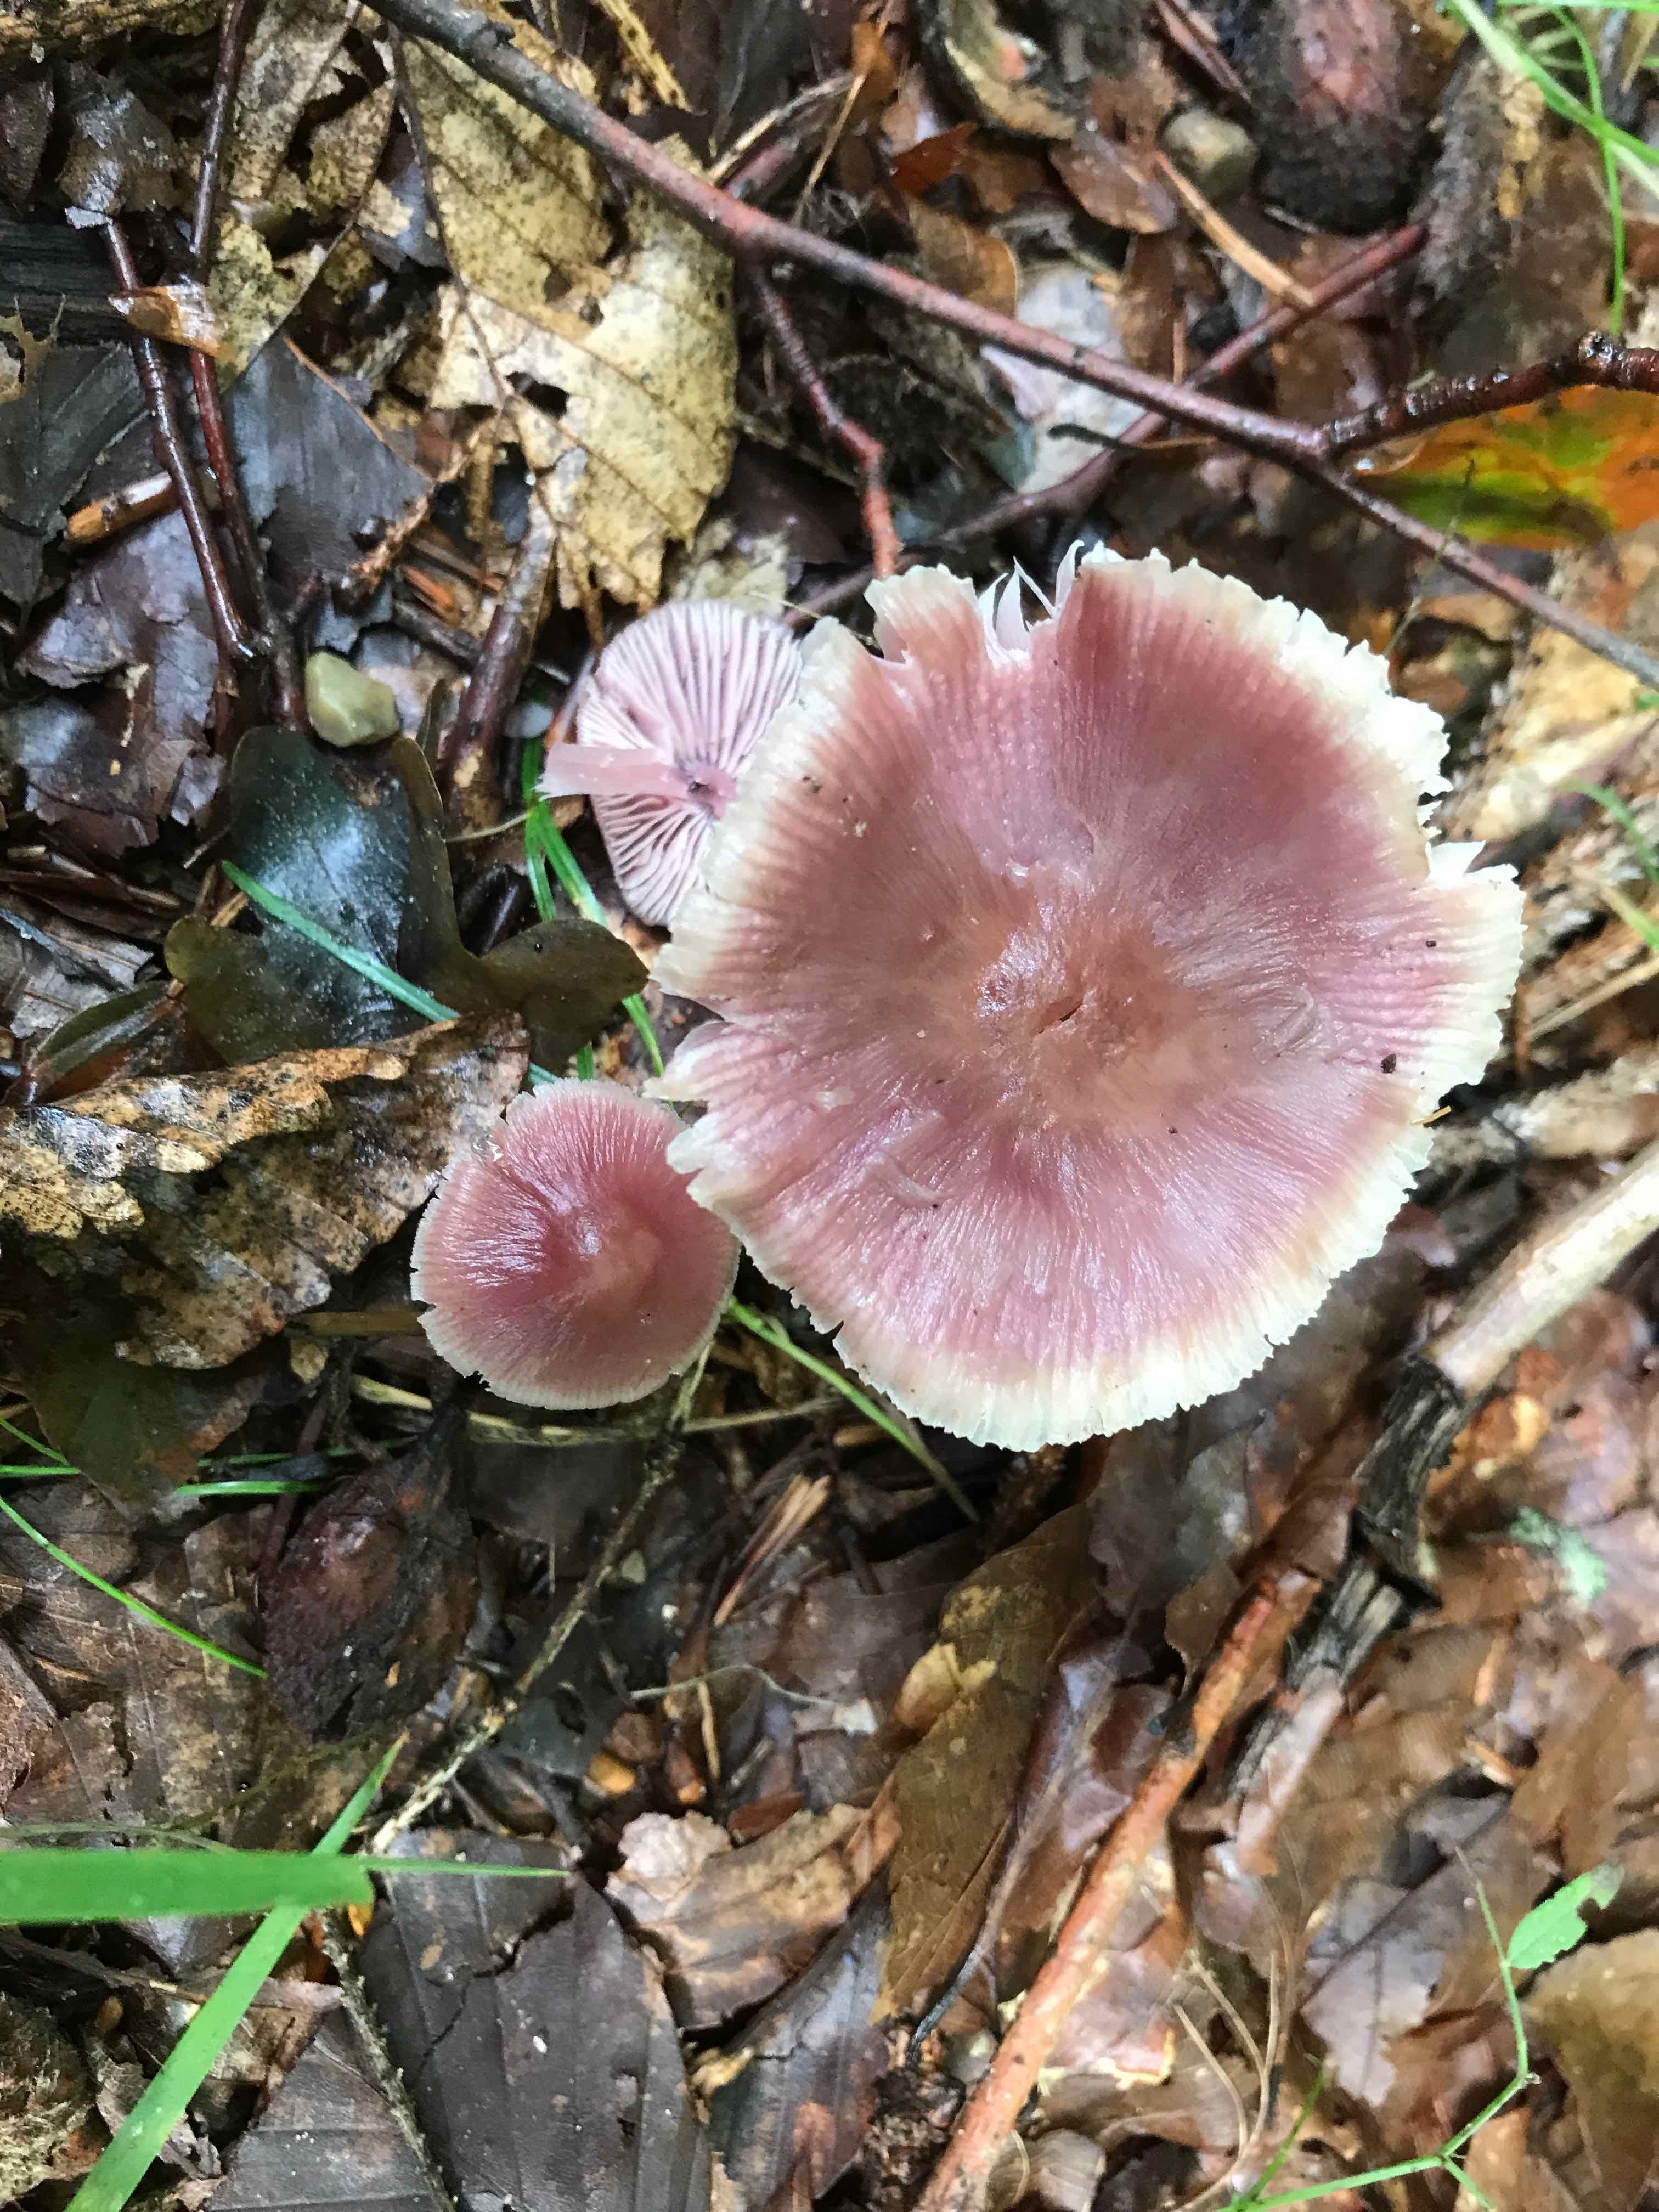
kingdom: Fungi
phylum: Basidiomycota
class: Agaricomycetes
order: Agaricales
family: Mycenaceae
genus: Mycena
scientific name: Mycena rosea
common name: rosa huesvamp
